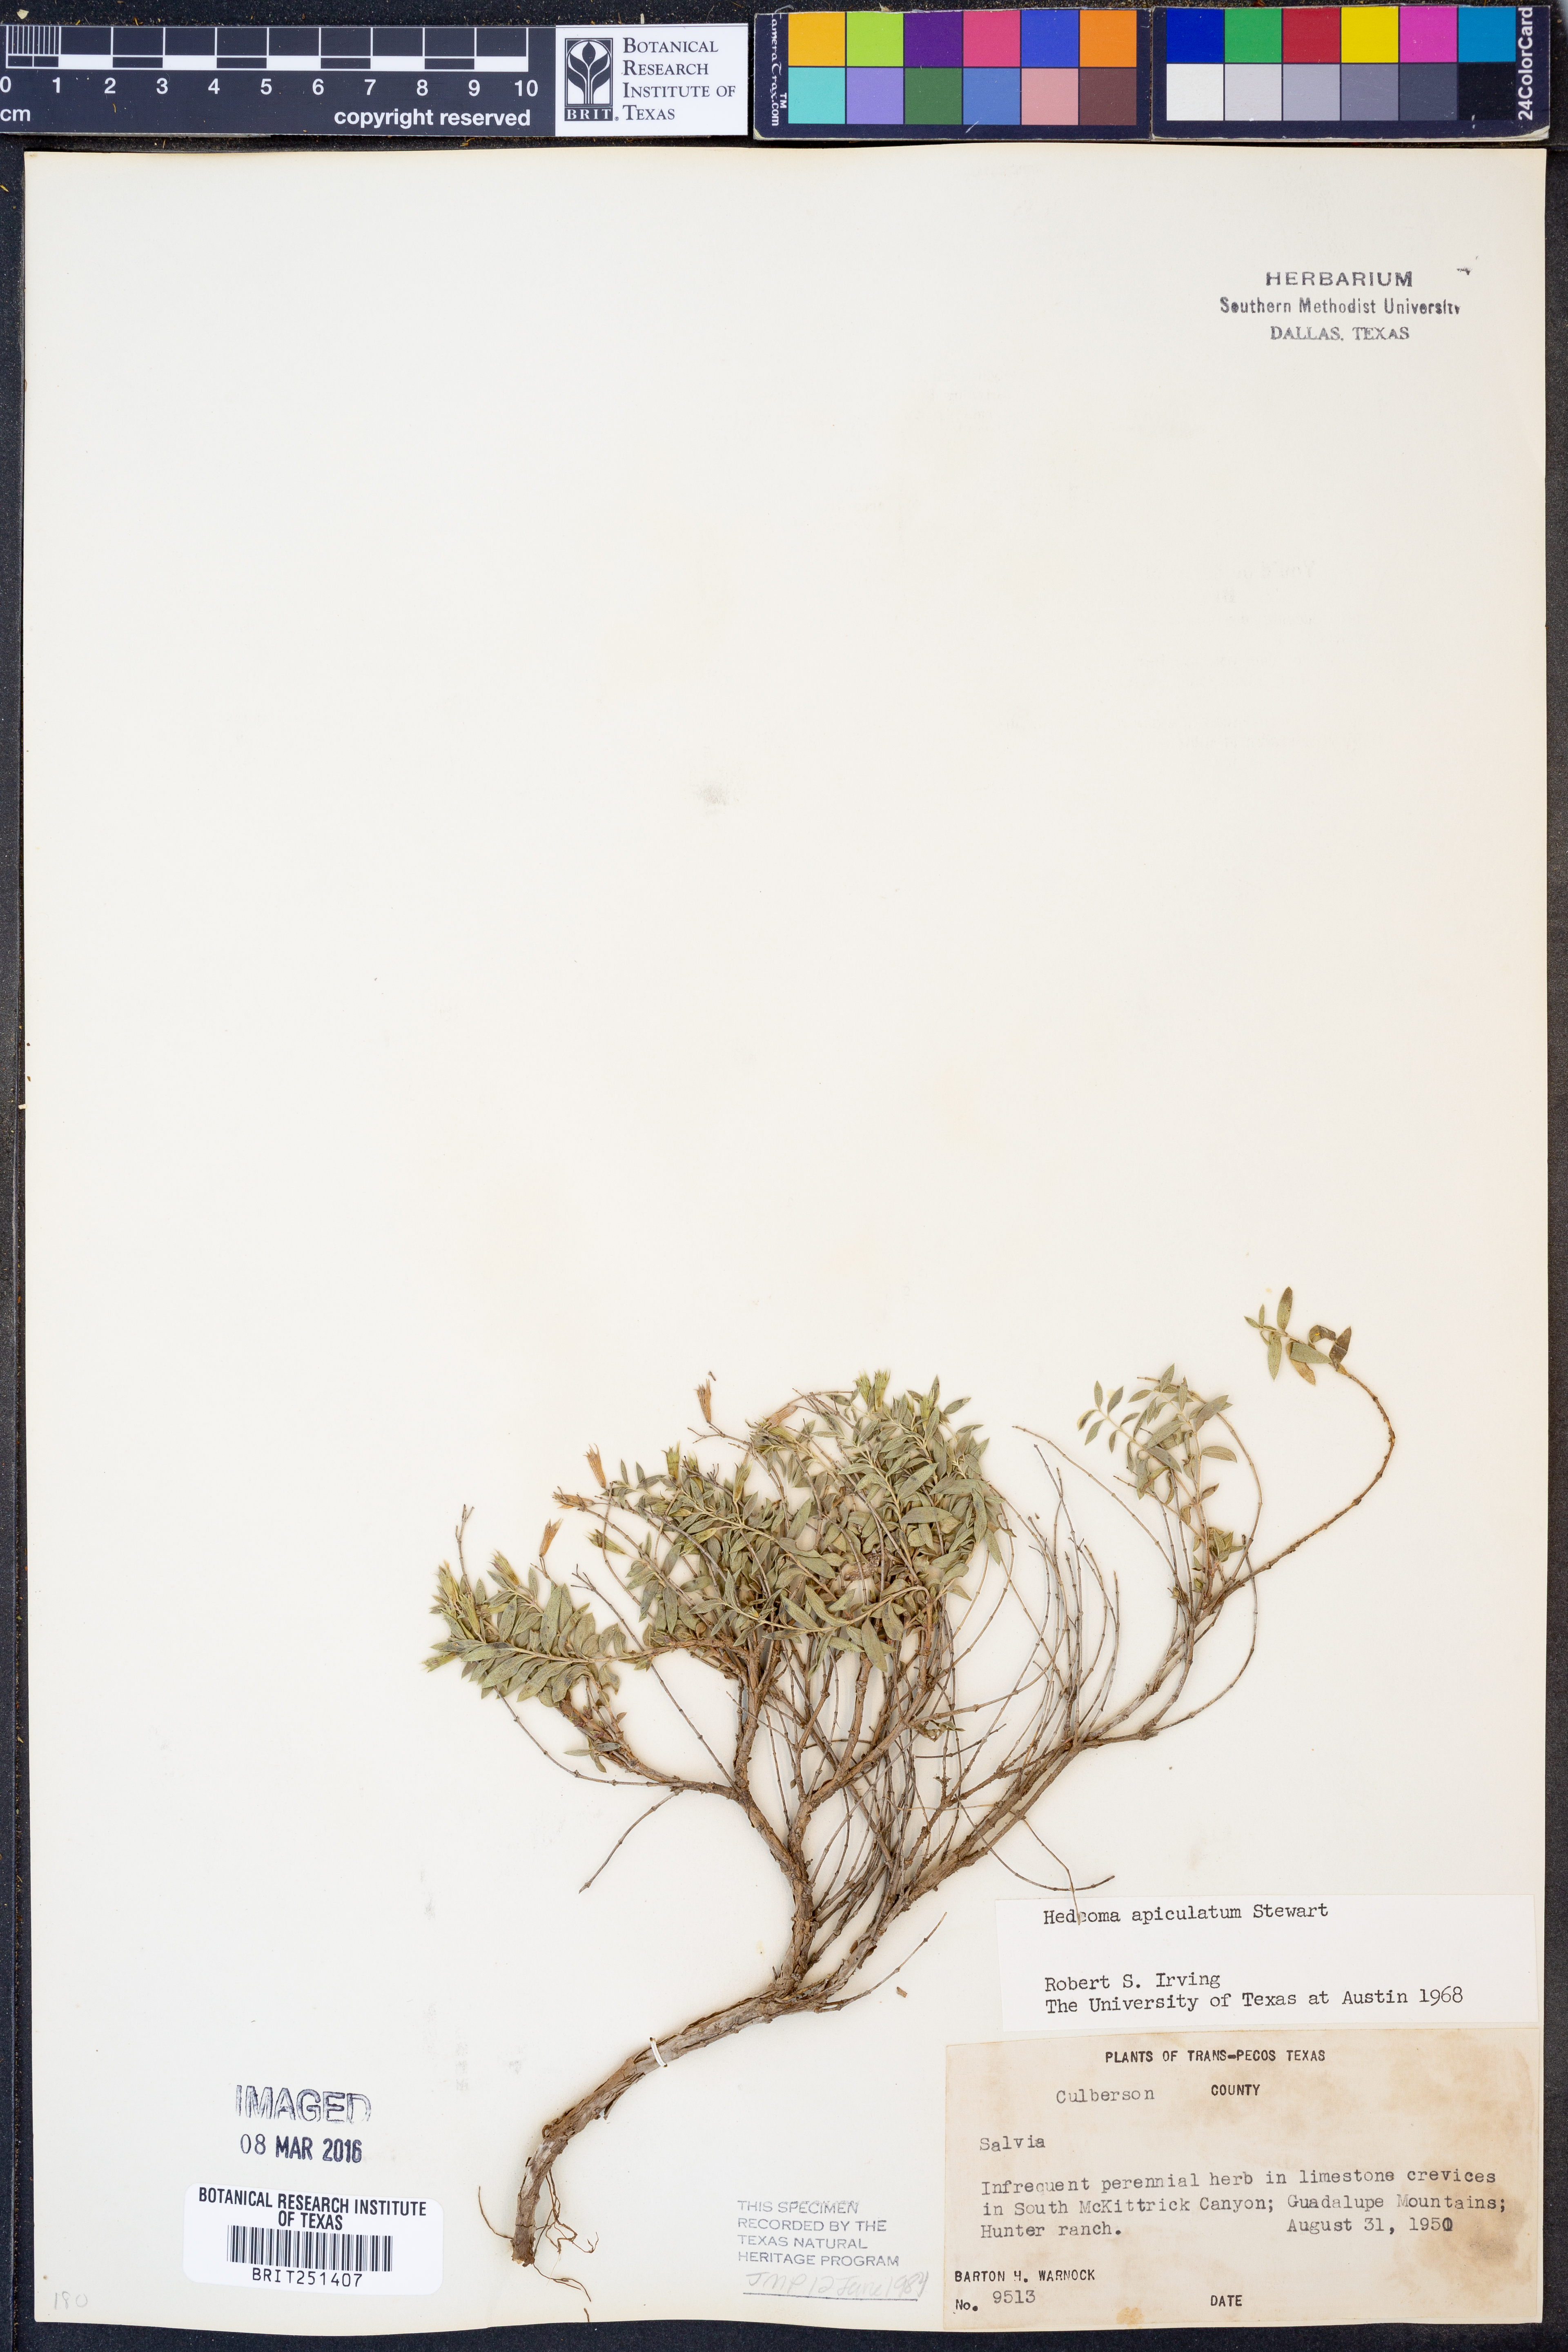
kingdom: Plantae
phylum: Tracheophyta
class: Magnoliopsida
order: Lamiales
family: Lamiaceae
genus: Hedeoma
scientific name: Hedeoma apiculata
